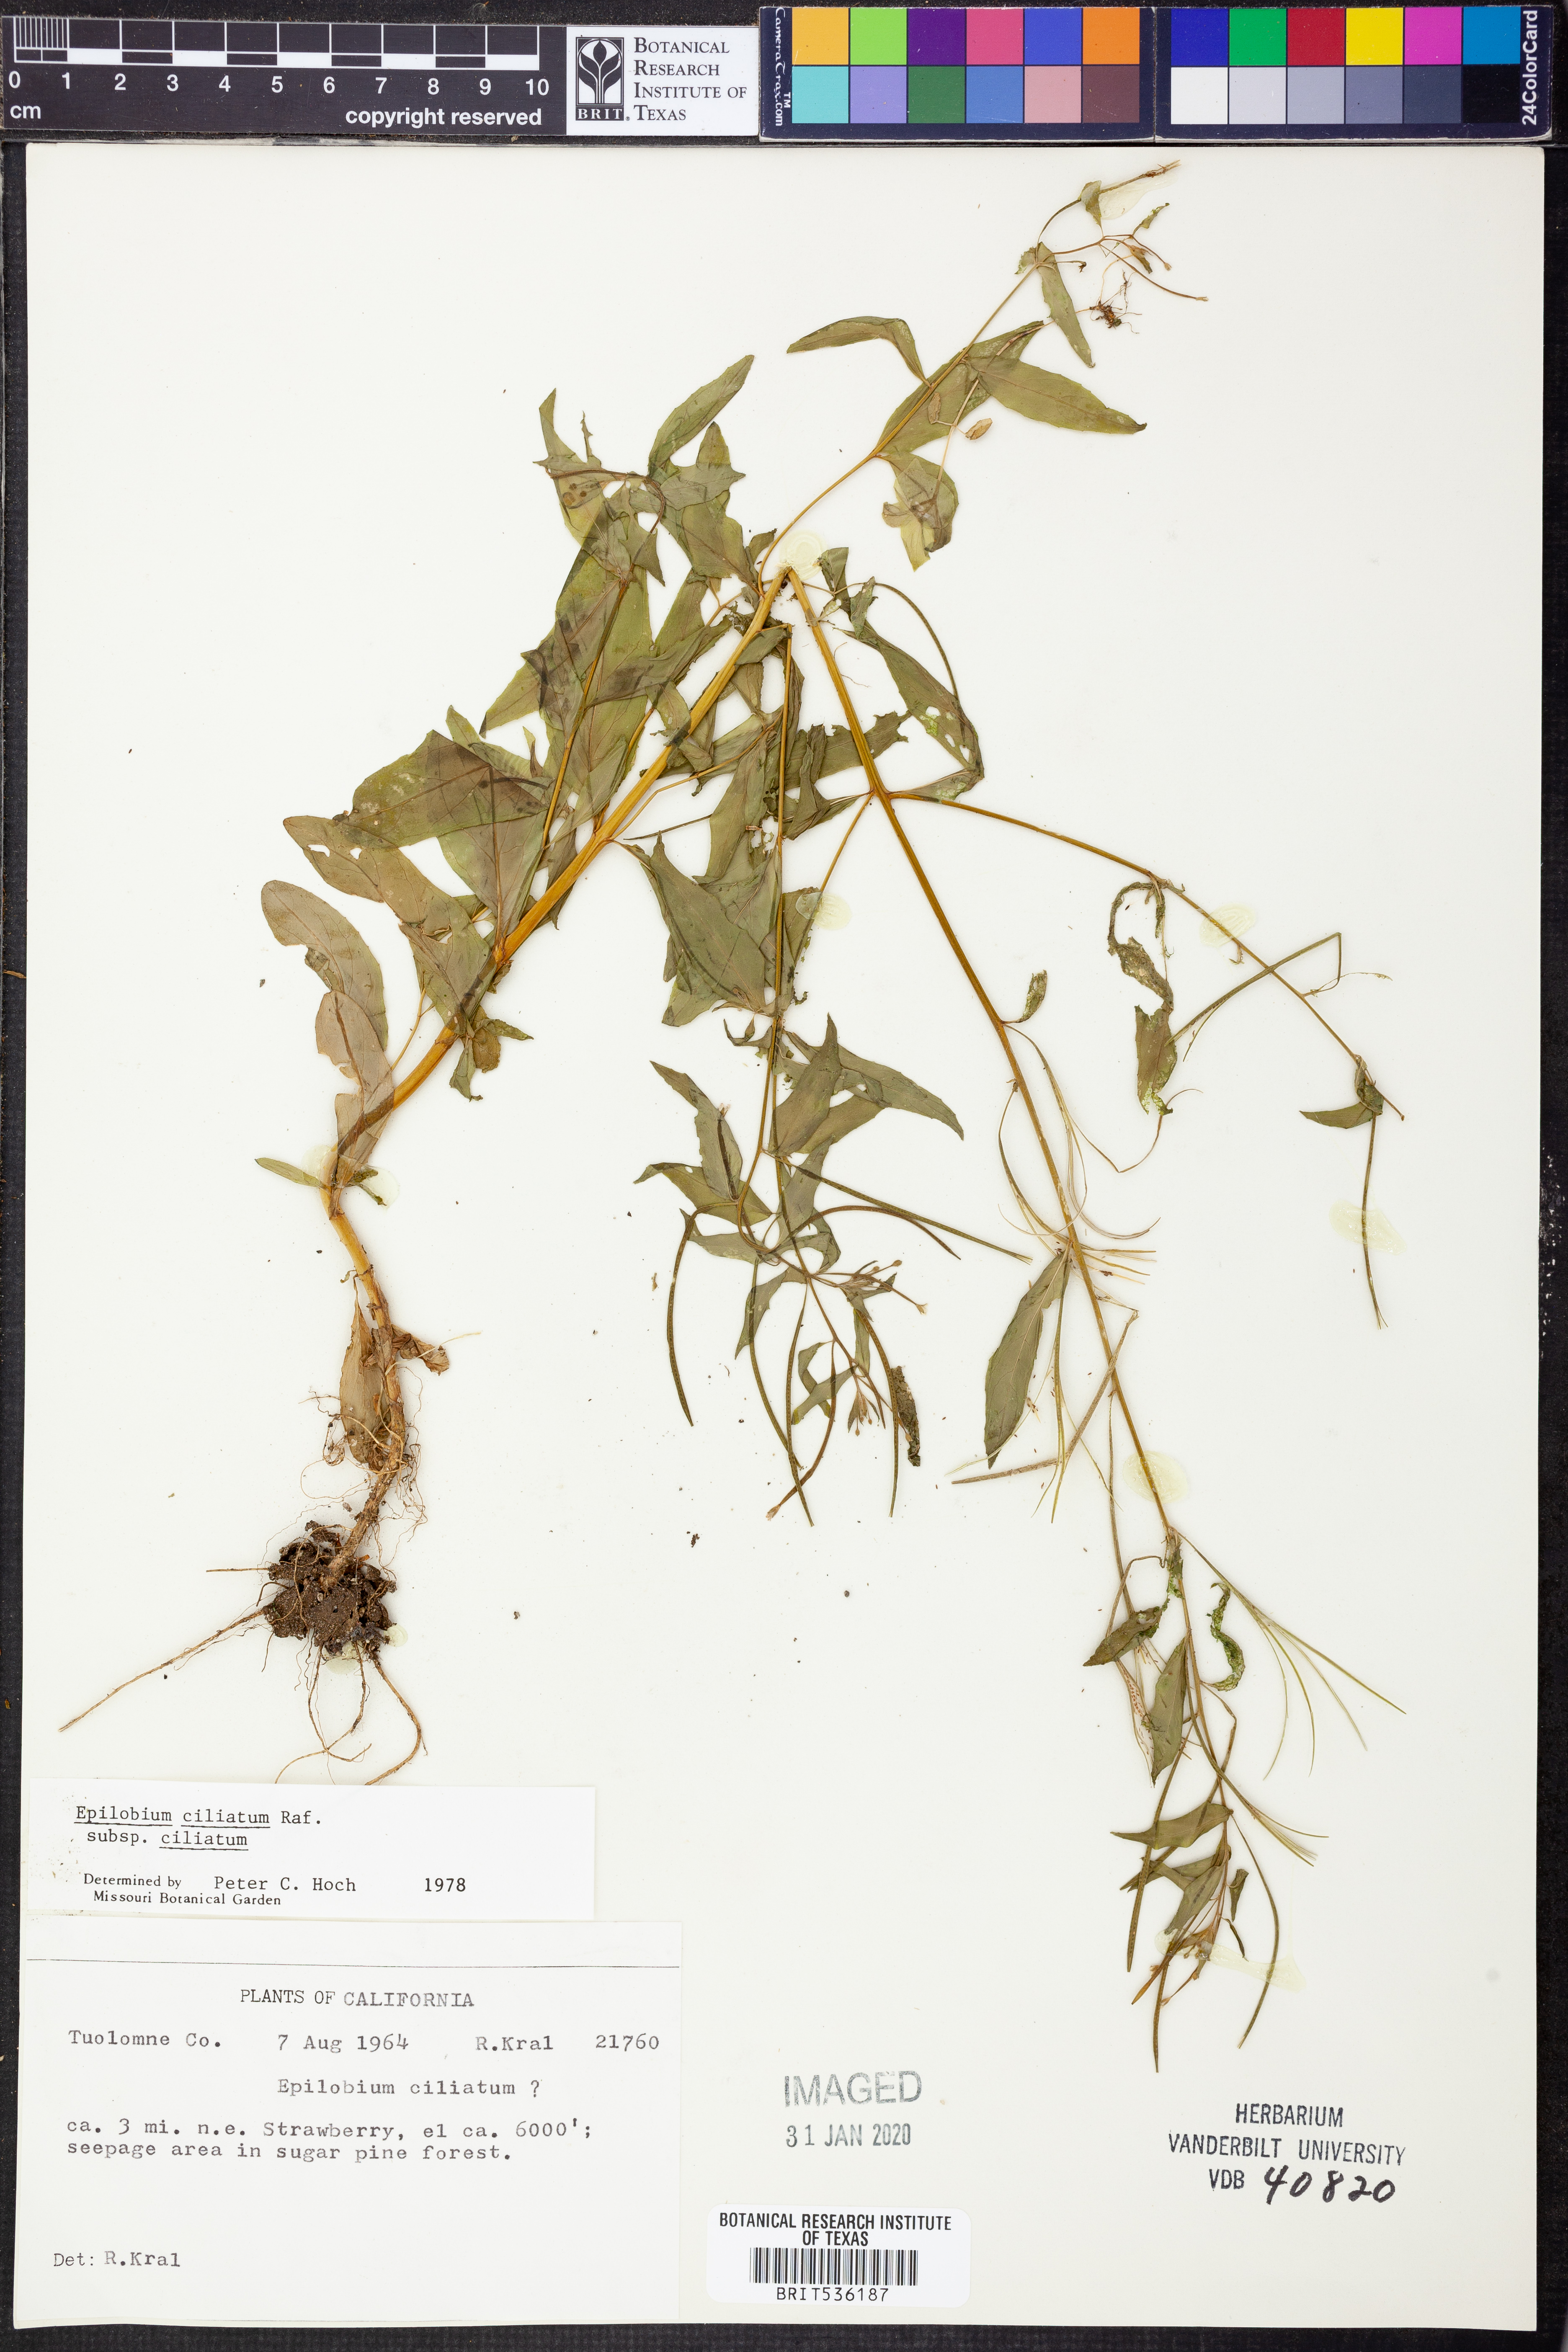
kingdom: Plantae
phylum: Tracheophyta
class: Magnoliopsida
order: Myrtales
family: Onagraceae
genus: Epilobium
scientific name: Epilobium ciliatum
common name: American willowherb
